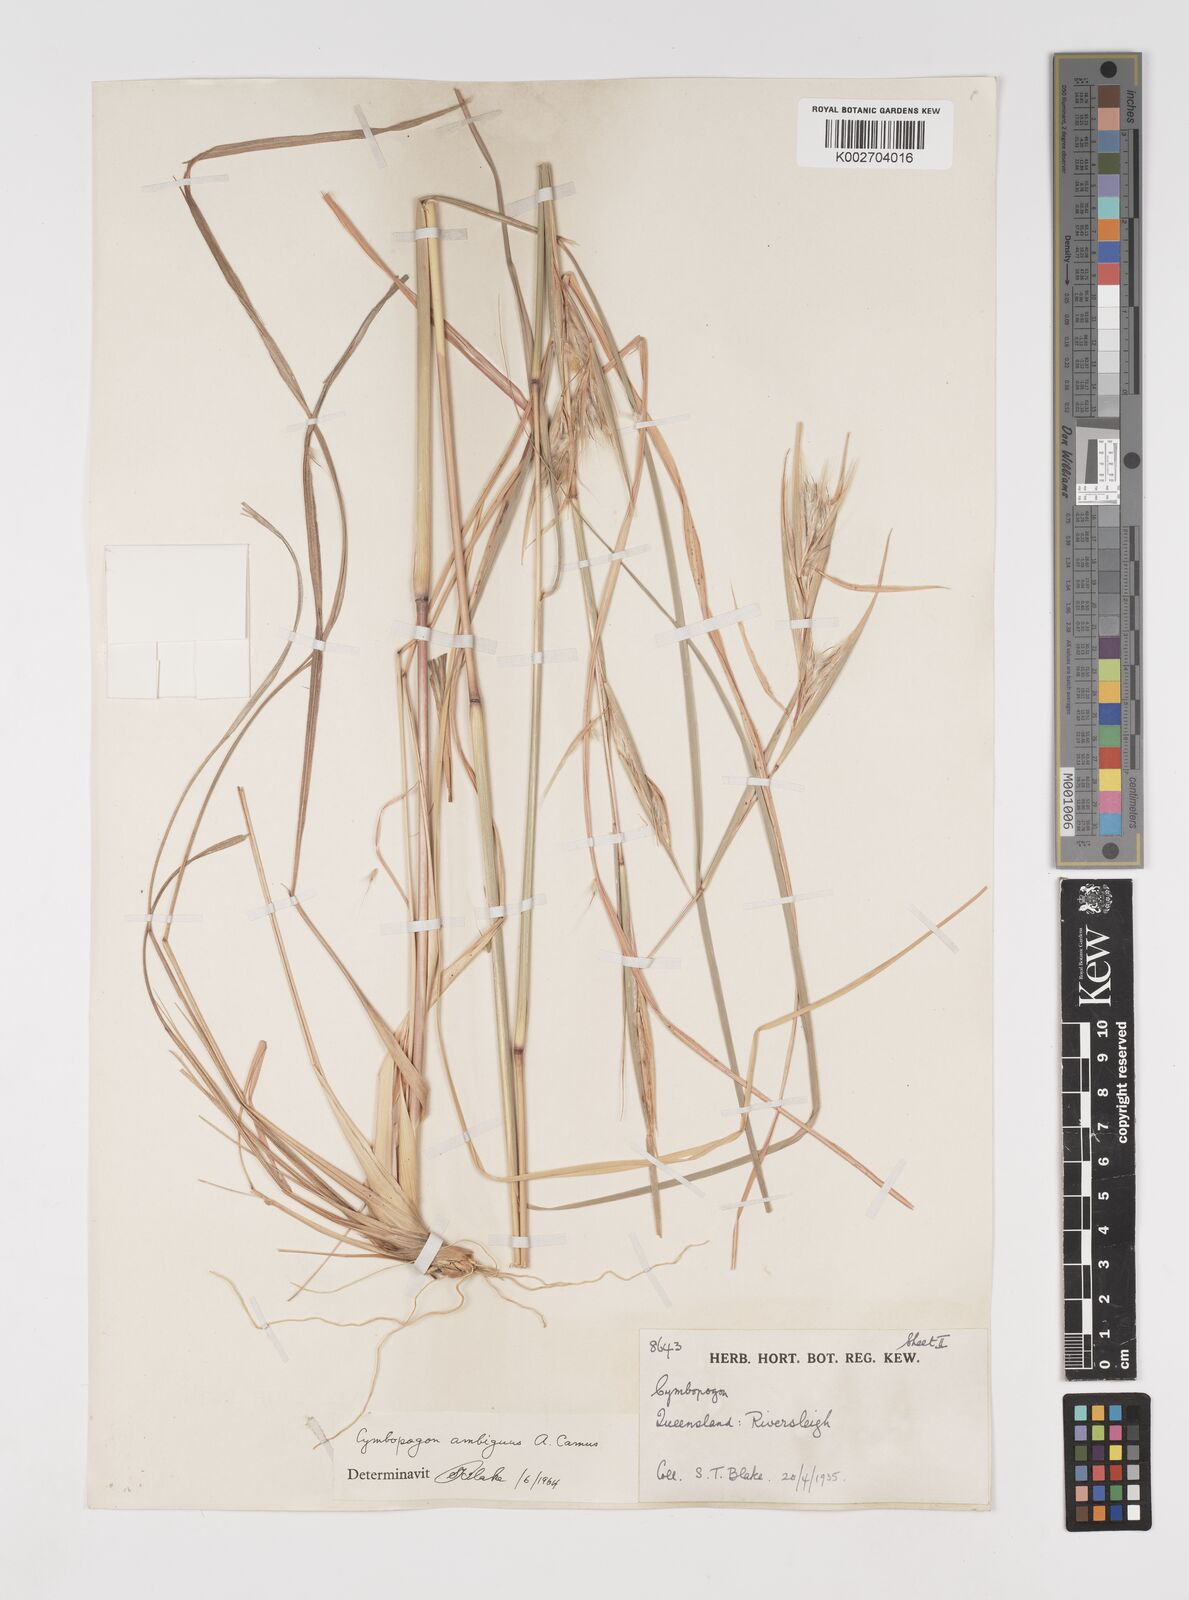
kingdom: Plantae
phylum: Tracheophyta
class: Liliopsida
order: Poales
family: Poaceae
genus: Cymbopogon
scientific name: Cymbopogon ambiguus
